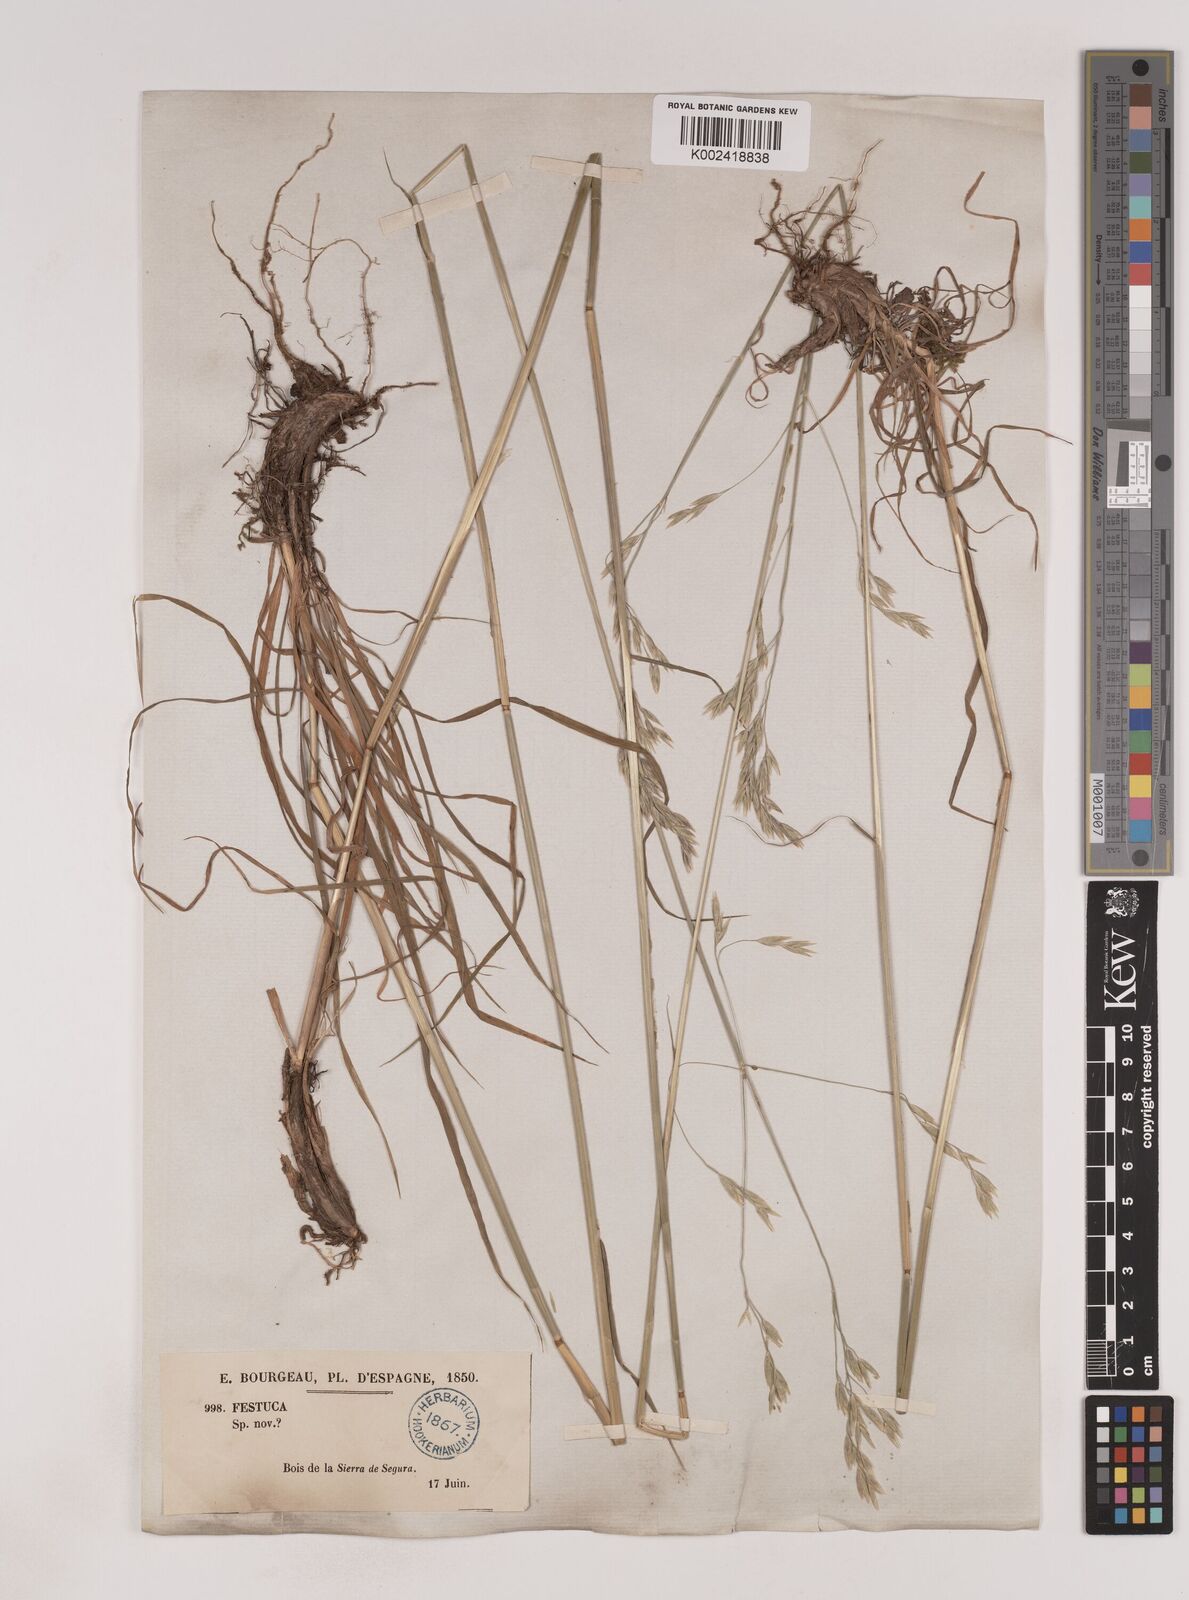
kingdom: Plantae
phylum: Tracheophyta
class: Liliopsida
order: Poales
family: Poaceae
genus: Patzkea
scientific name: Patzkea patula
